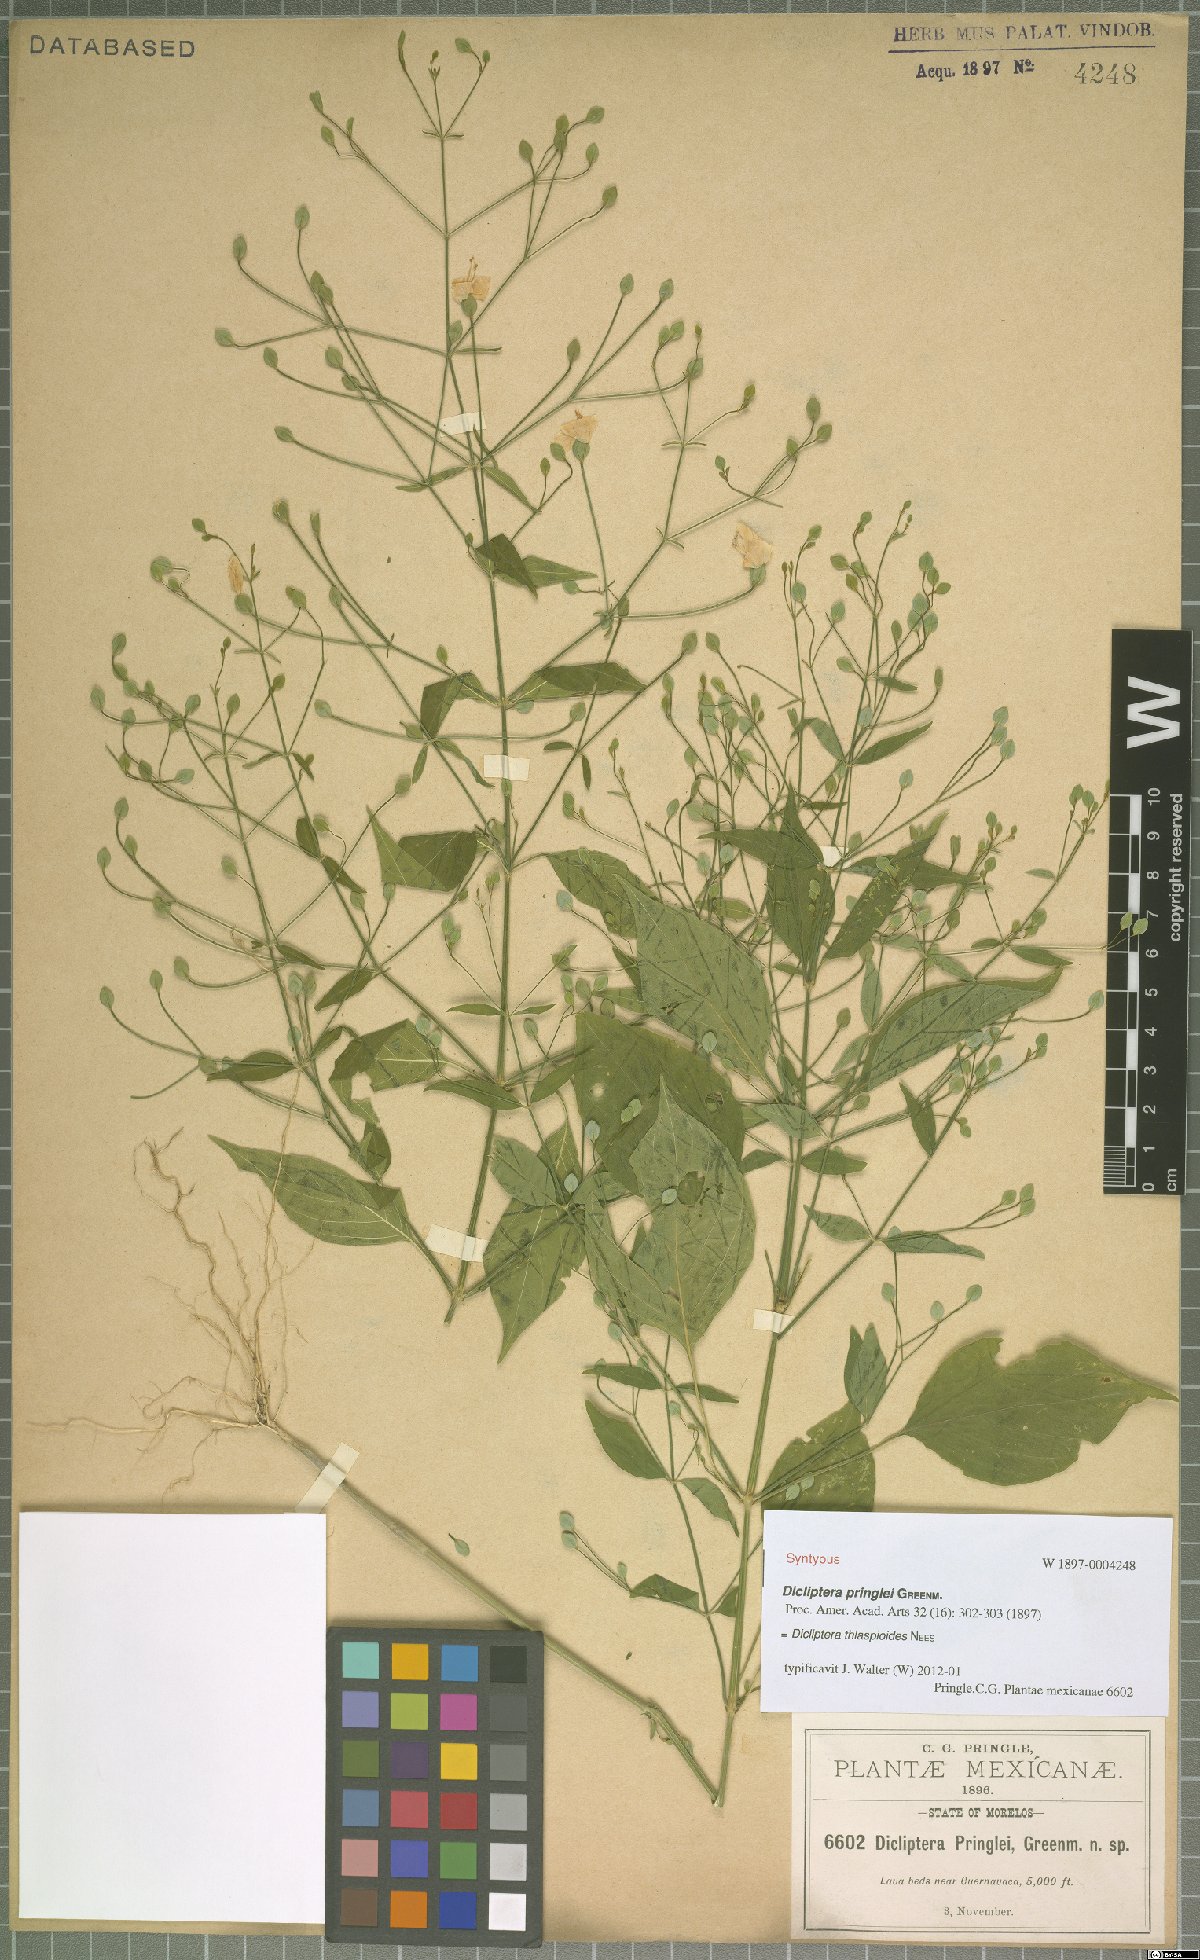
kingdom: Plantae
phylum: Tracheophyta
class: Magnoliopsida
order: Lamiales
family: Acanthaceae
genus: Dicliptera
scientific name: Dicliptera thlaspioides
